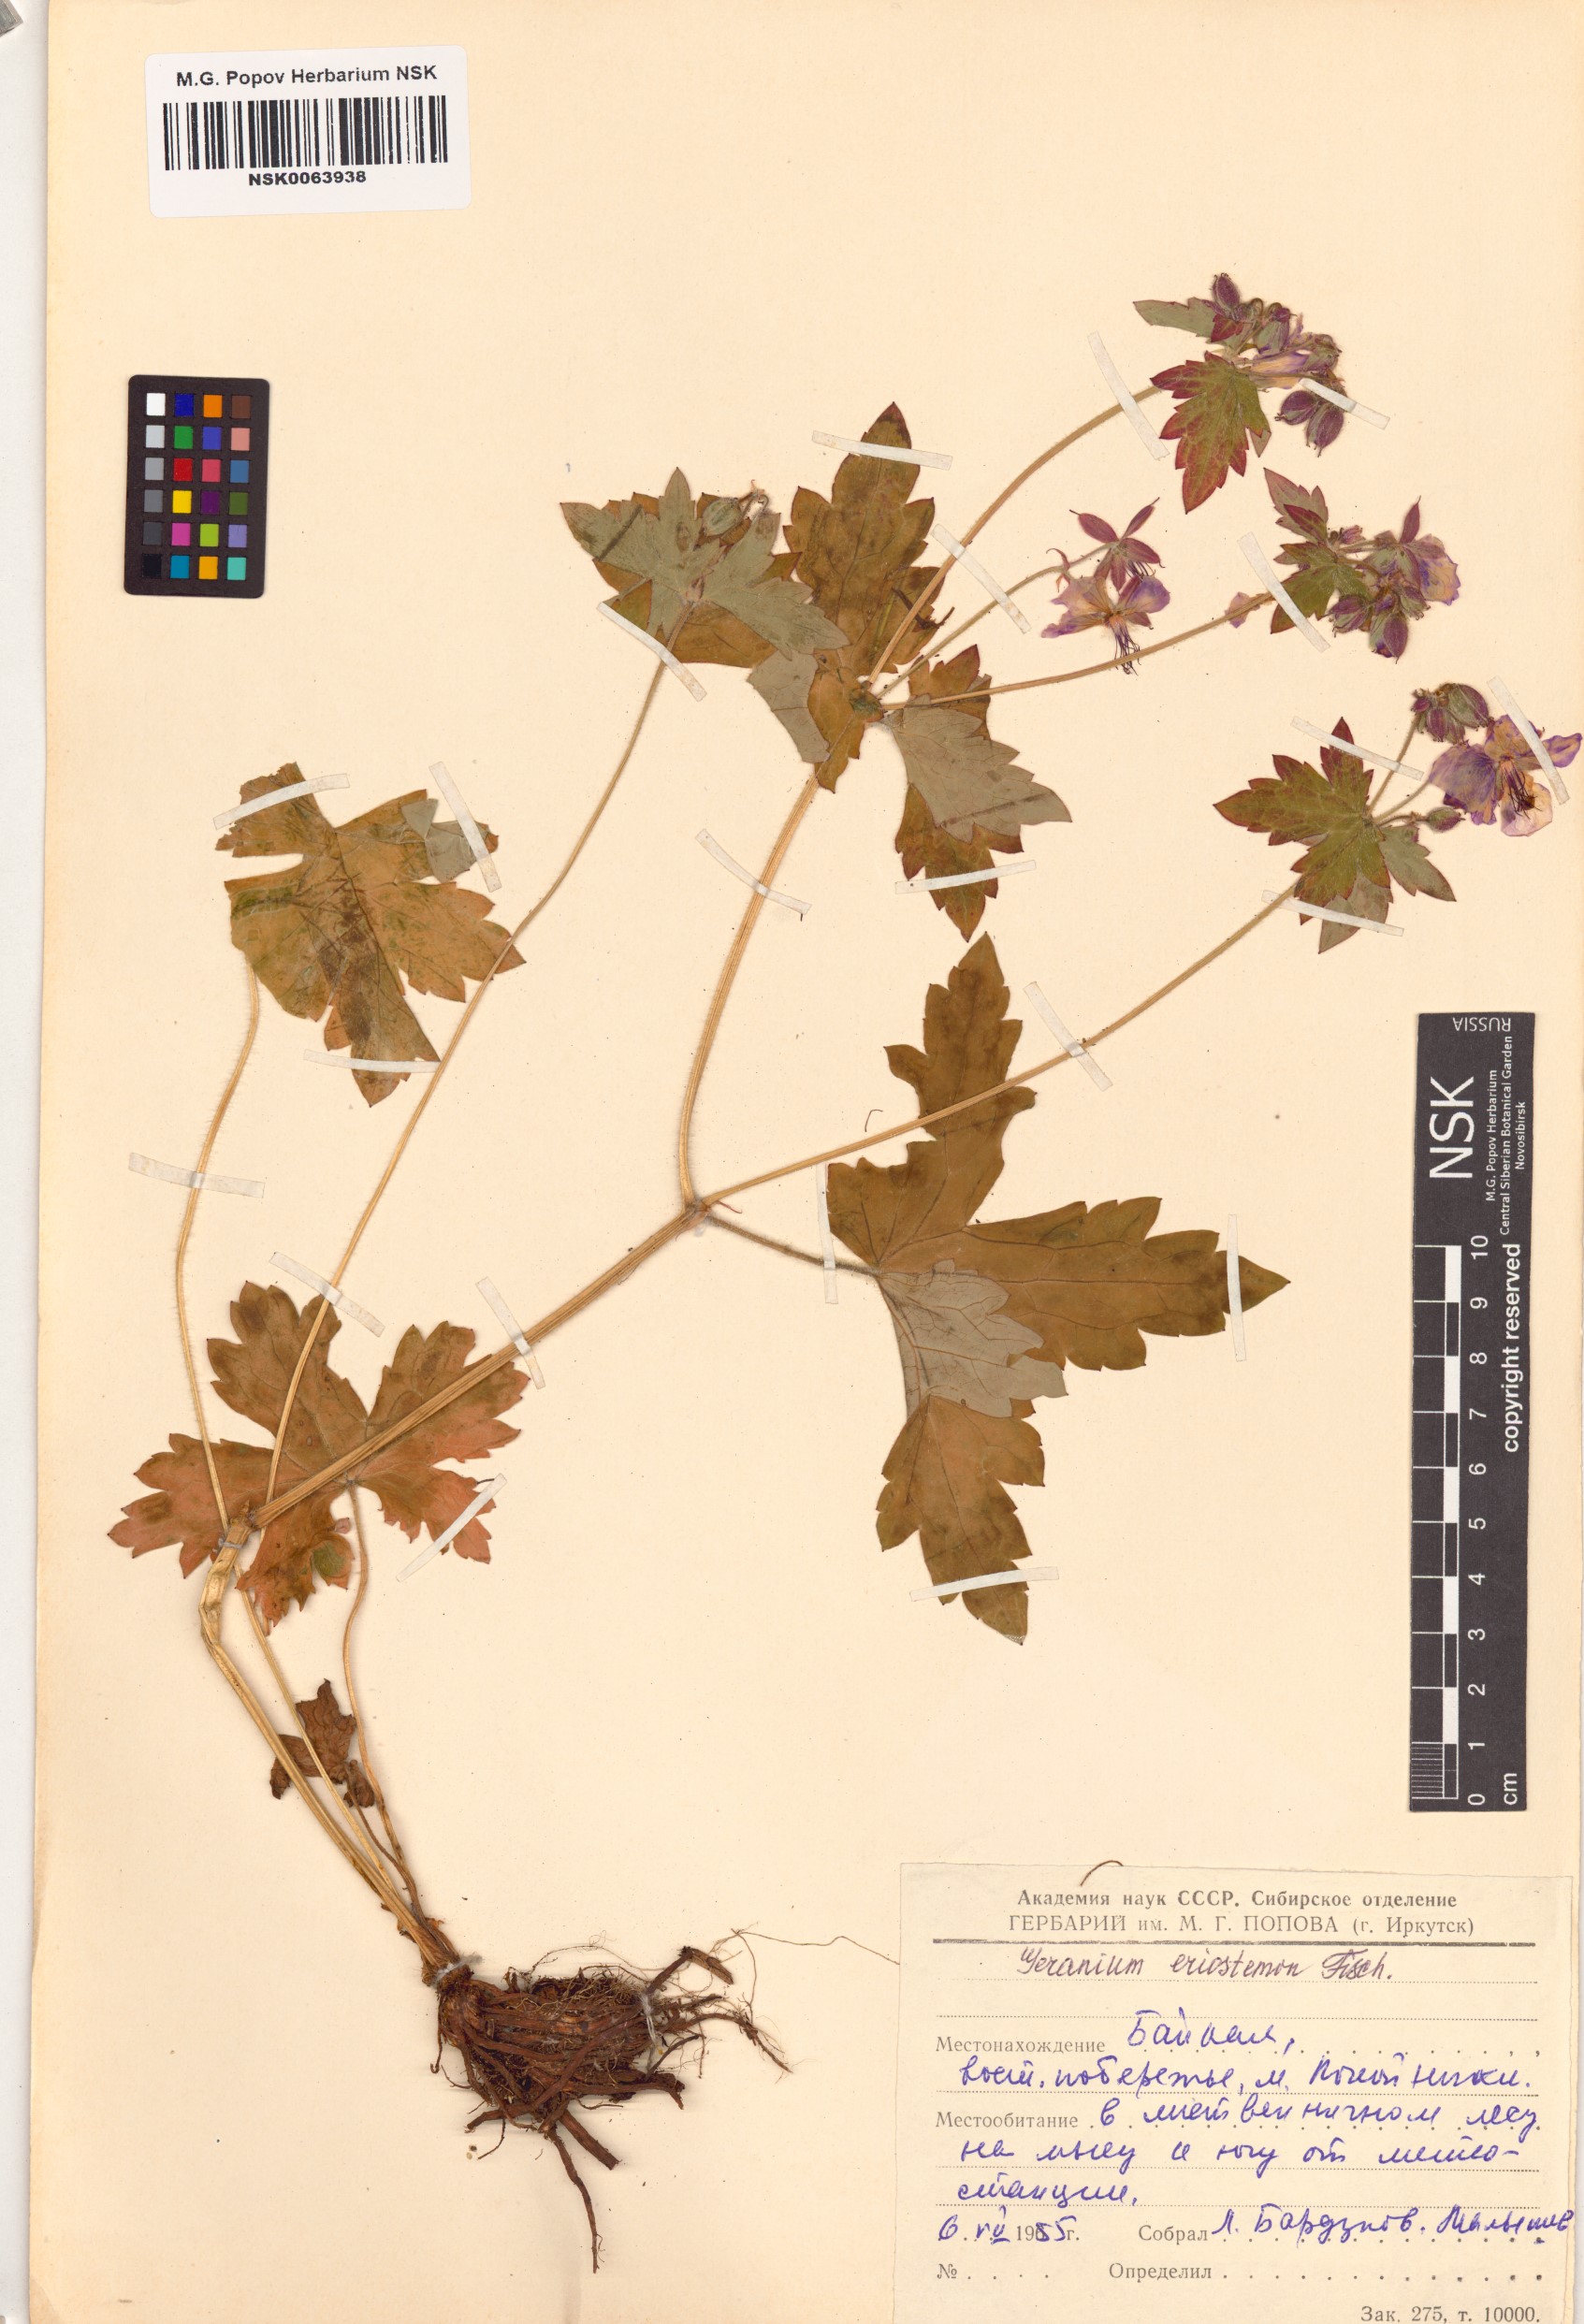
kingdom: Plantae
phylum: Tracheophyta
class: Magnoliopsida
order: Geraniales
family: Geraniaceae
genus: Geranium
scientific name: Geranium platyanthum
